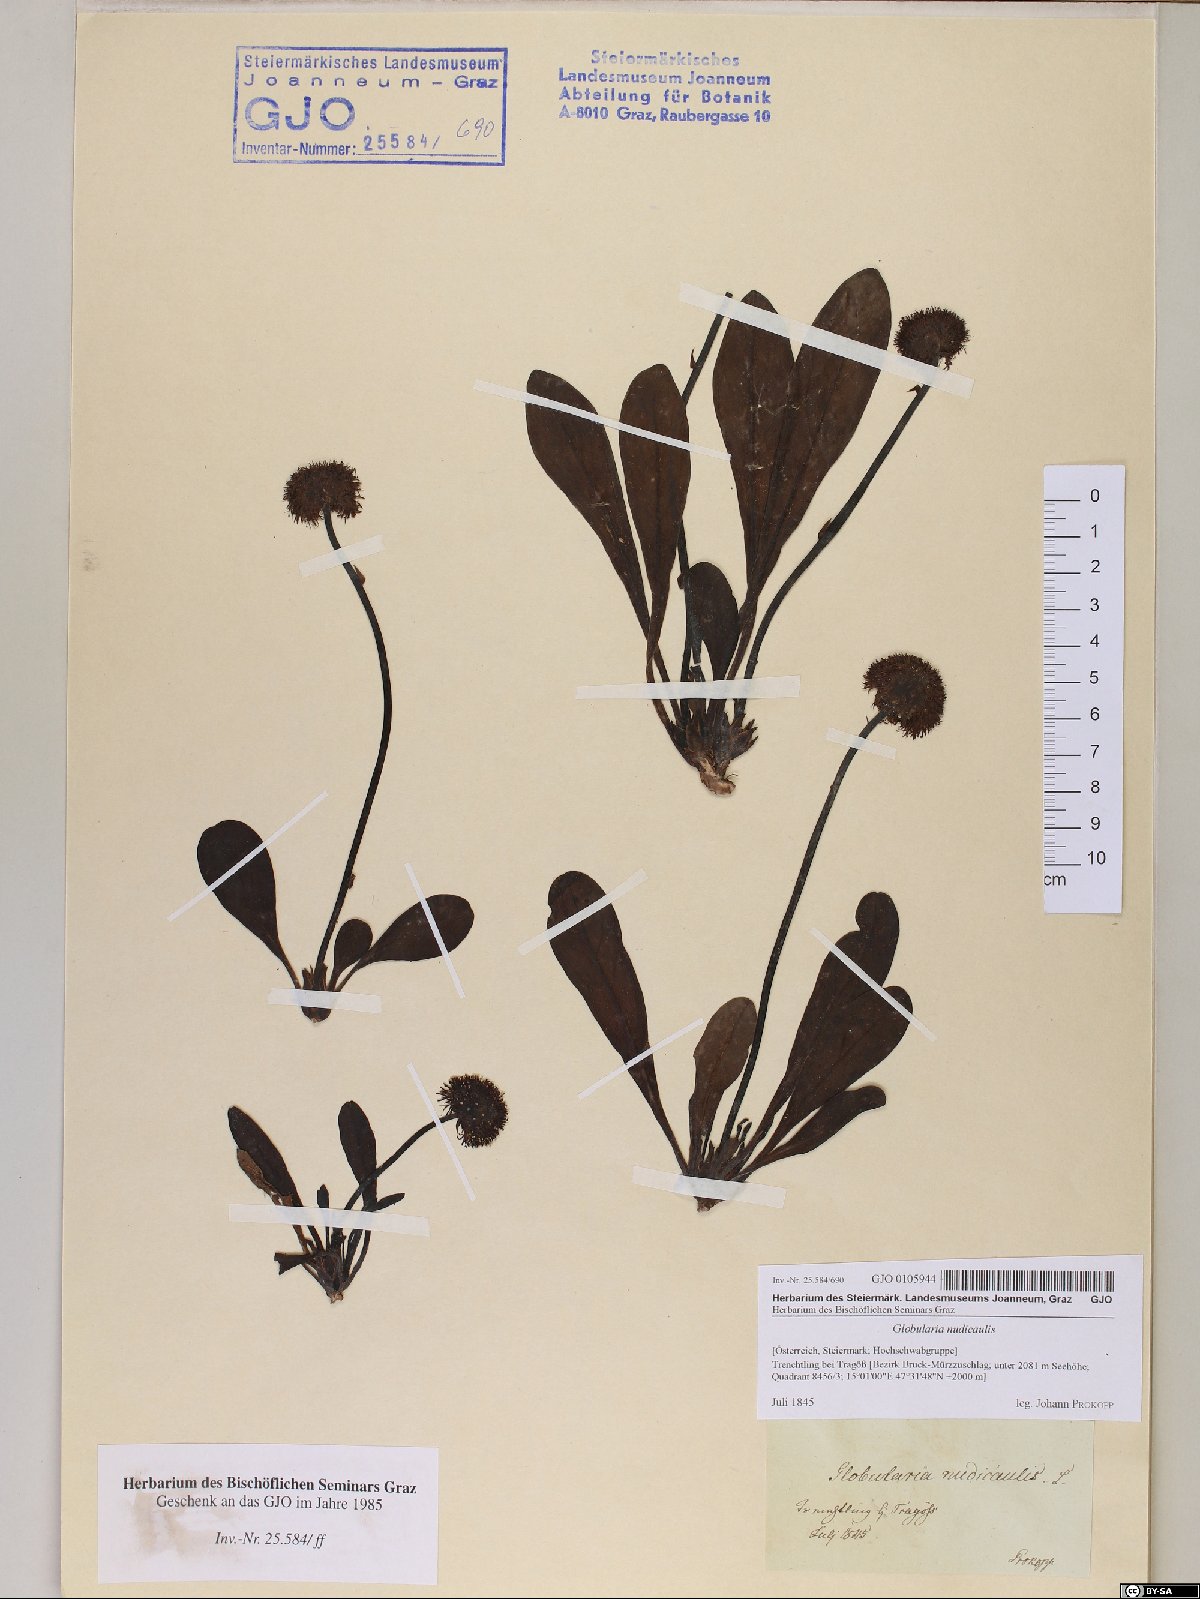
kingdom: Plantae
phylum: Tracheophyta
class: Magnoliopsida
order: Lamiales
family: Plantaginaceae
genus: Globularia
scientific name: Globularia nudicaulis
